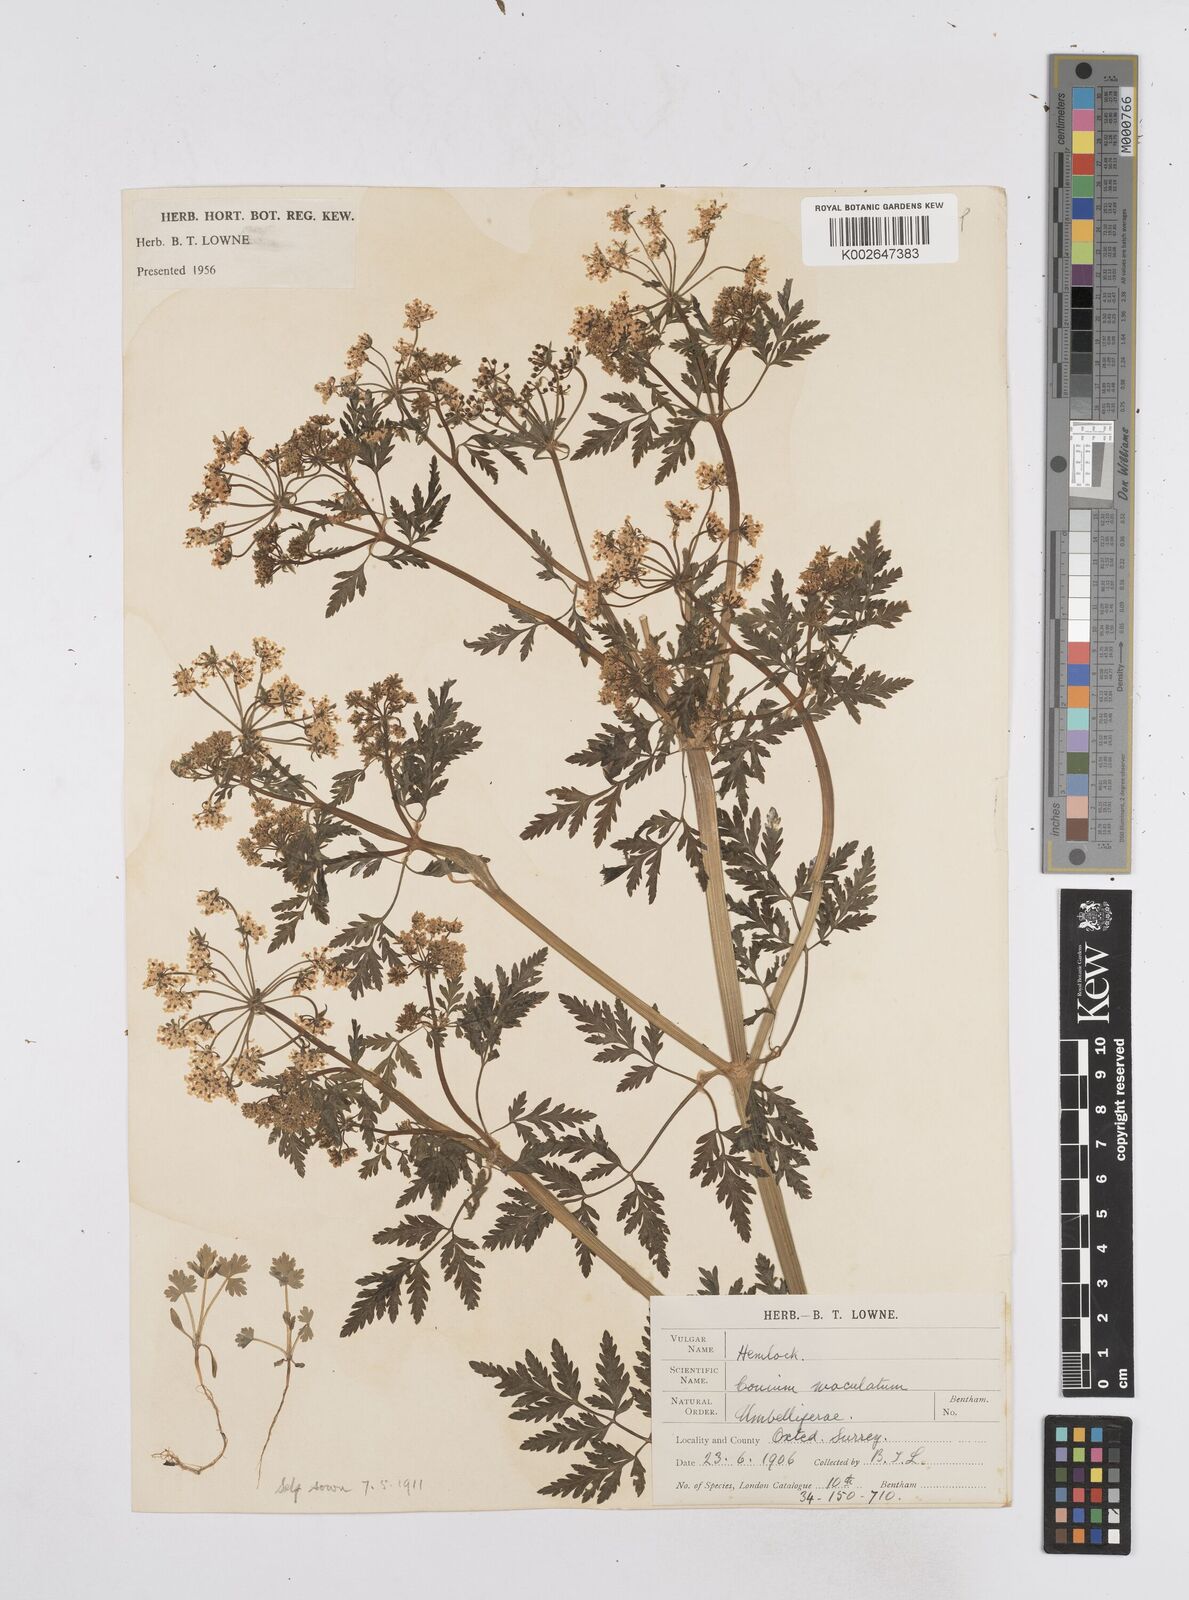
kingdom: Plantae
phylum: Tracheophyta
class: Magnoliopsida
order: Apiales
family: Apiaceae
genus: Conium
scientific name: Conium maculatum
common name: Hemlock
